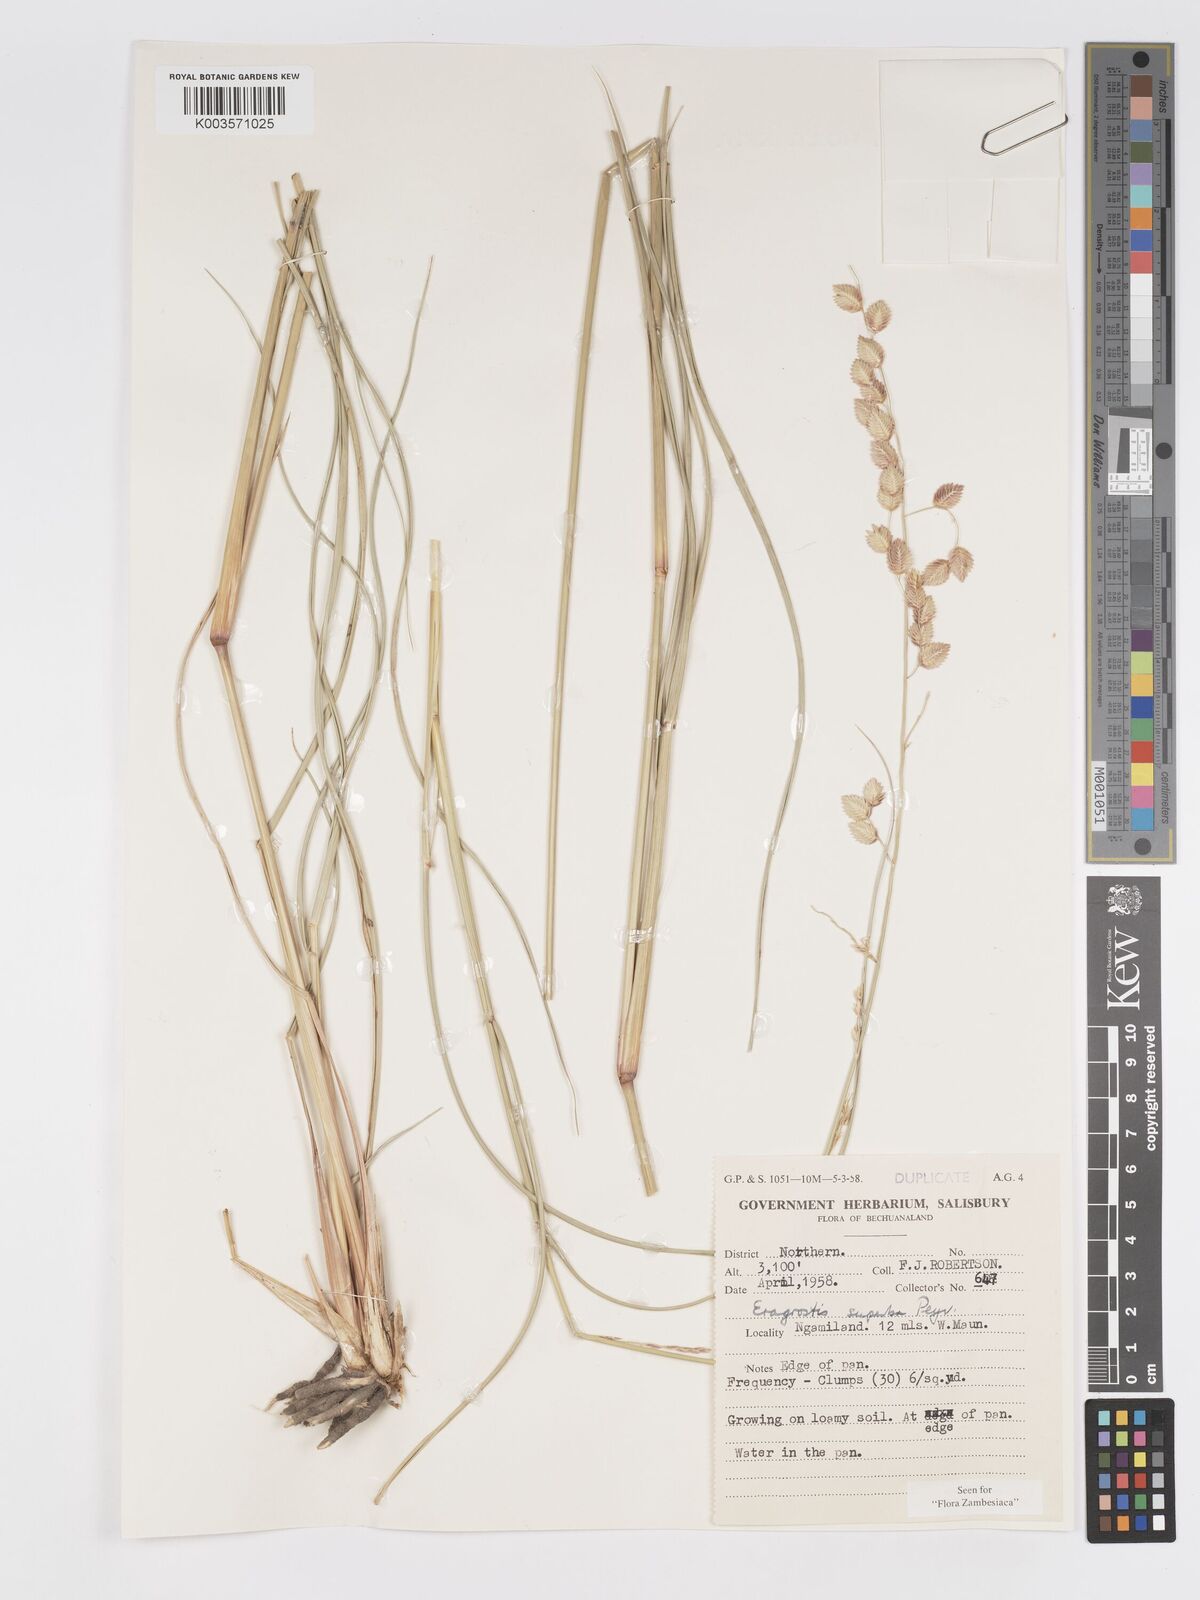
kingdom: Plantae
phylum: Tracheophyta
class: Liliopsida
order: Poales
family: Poaceae
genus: Eragrostis
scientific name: Eragrostis superba
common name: Wilman lovegrass
